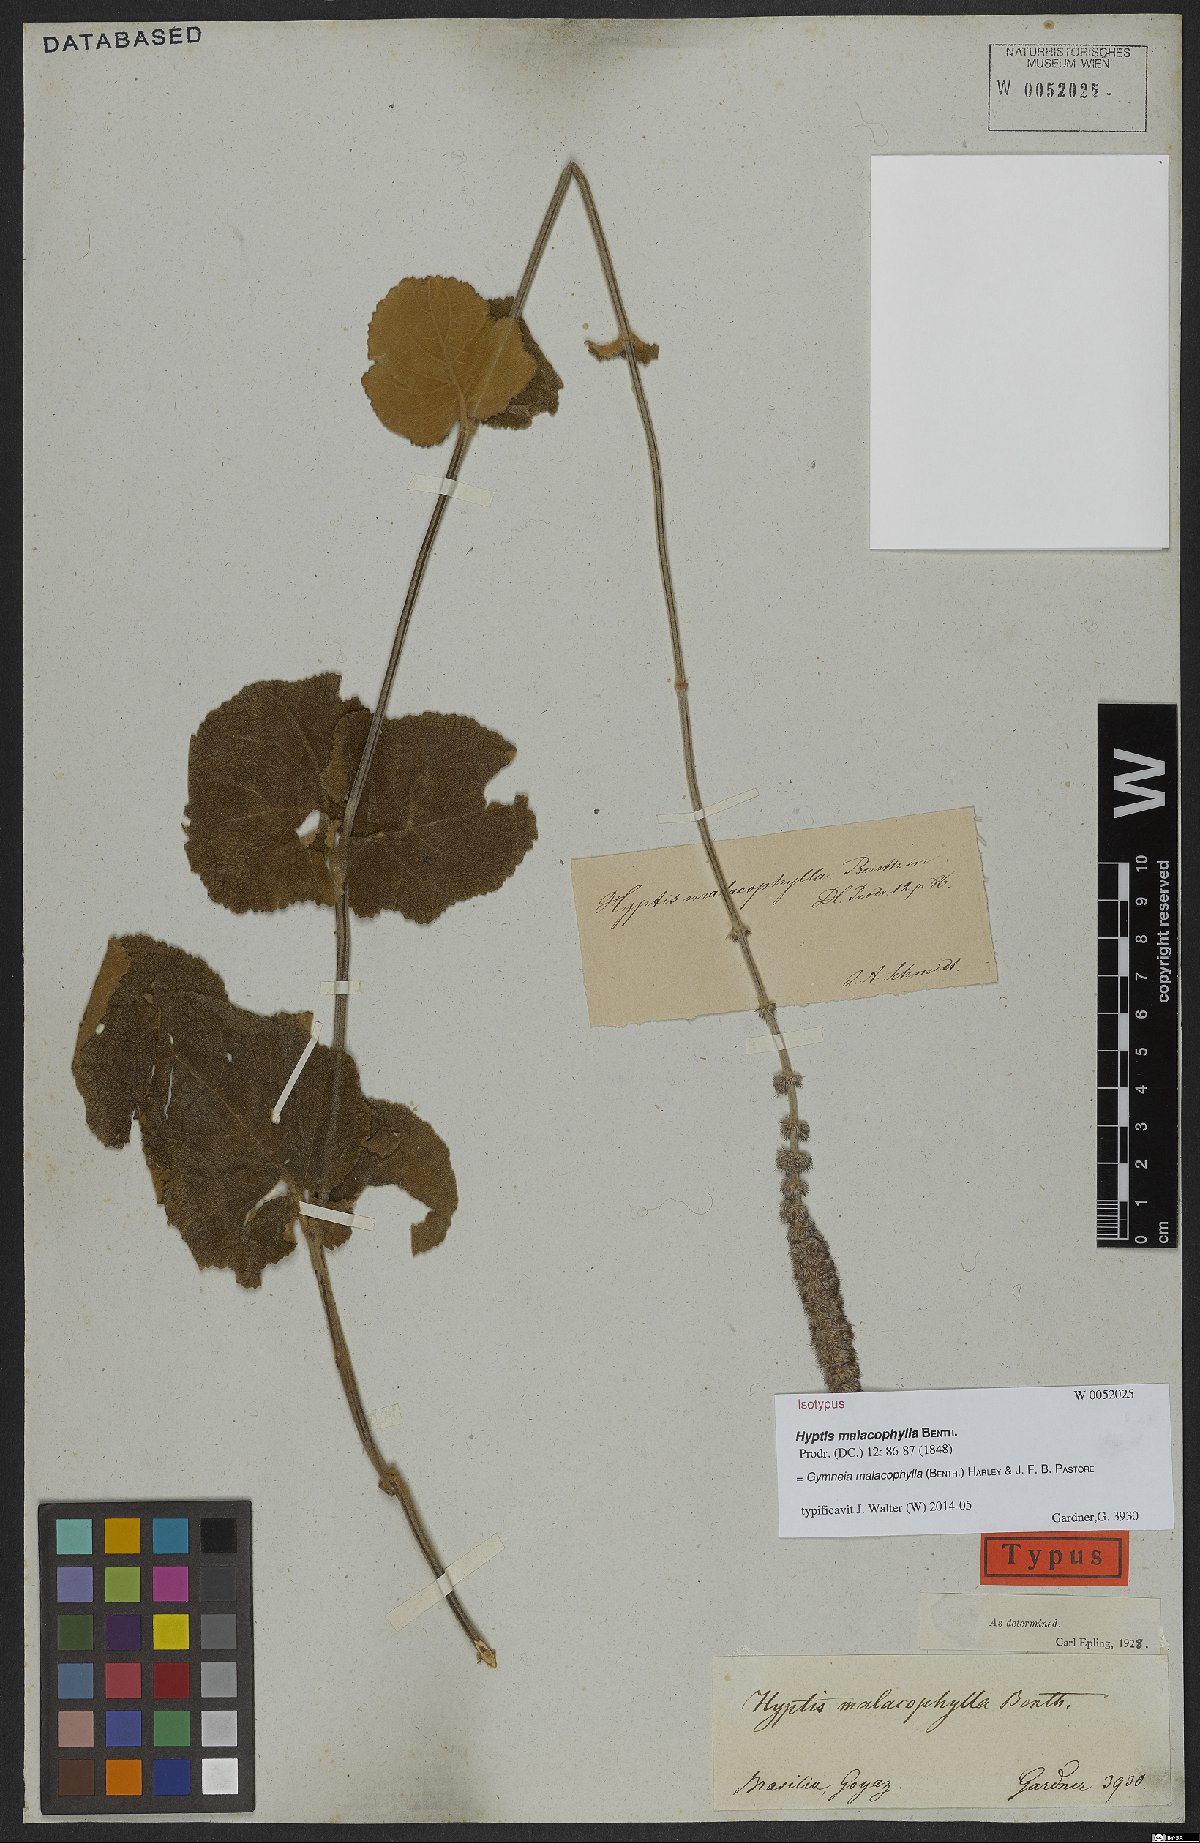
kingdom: Plantae
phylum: Tracheophyta
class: Magnoliopsida
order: Lamiales
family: Lamiaceae
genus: Gymneia
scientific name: Gymneia malacophylla
